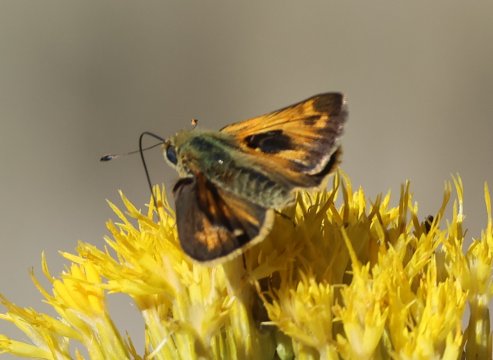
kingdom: Animalia
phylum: Arthropoda
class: Insecta
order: Lepidoptera
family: Hesperiidae
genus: Atalopedes
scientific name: Atalopedes campestris
